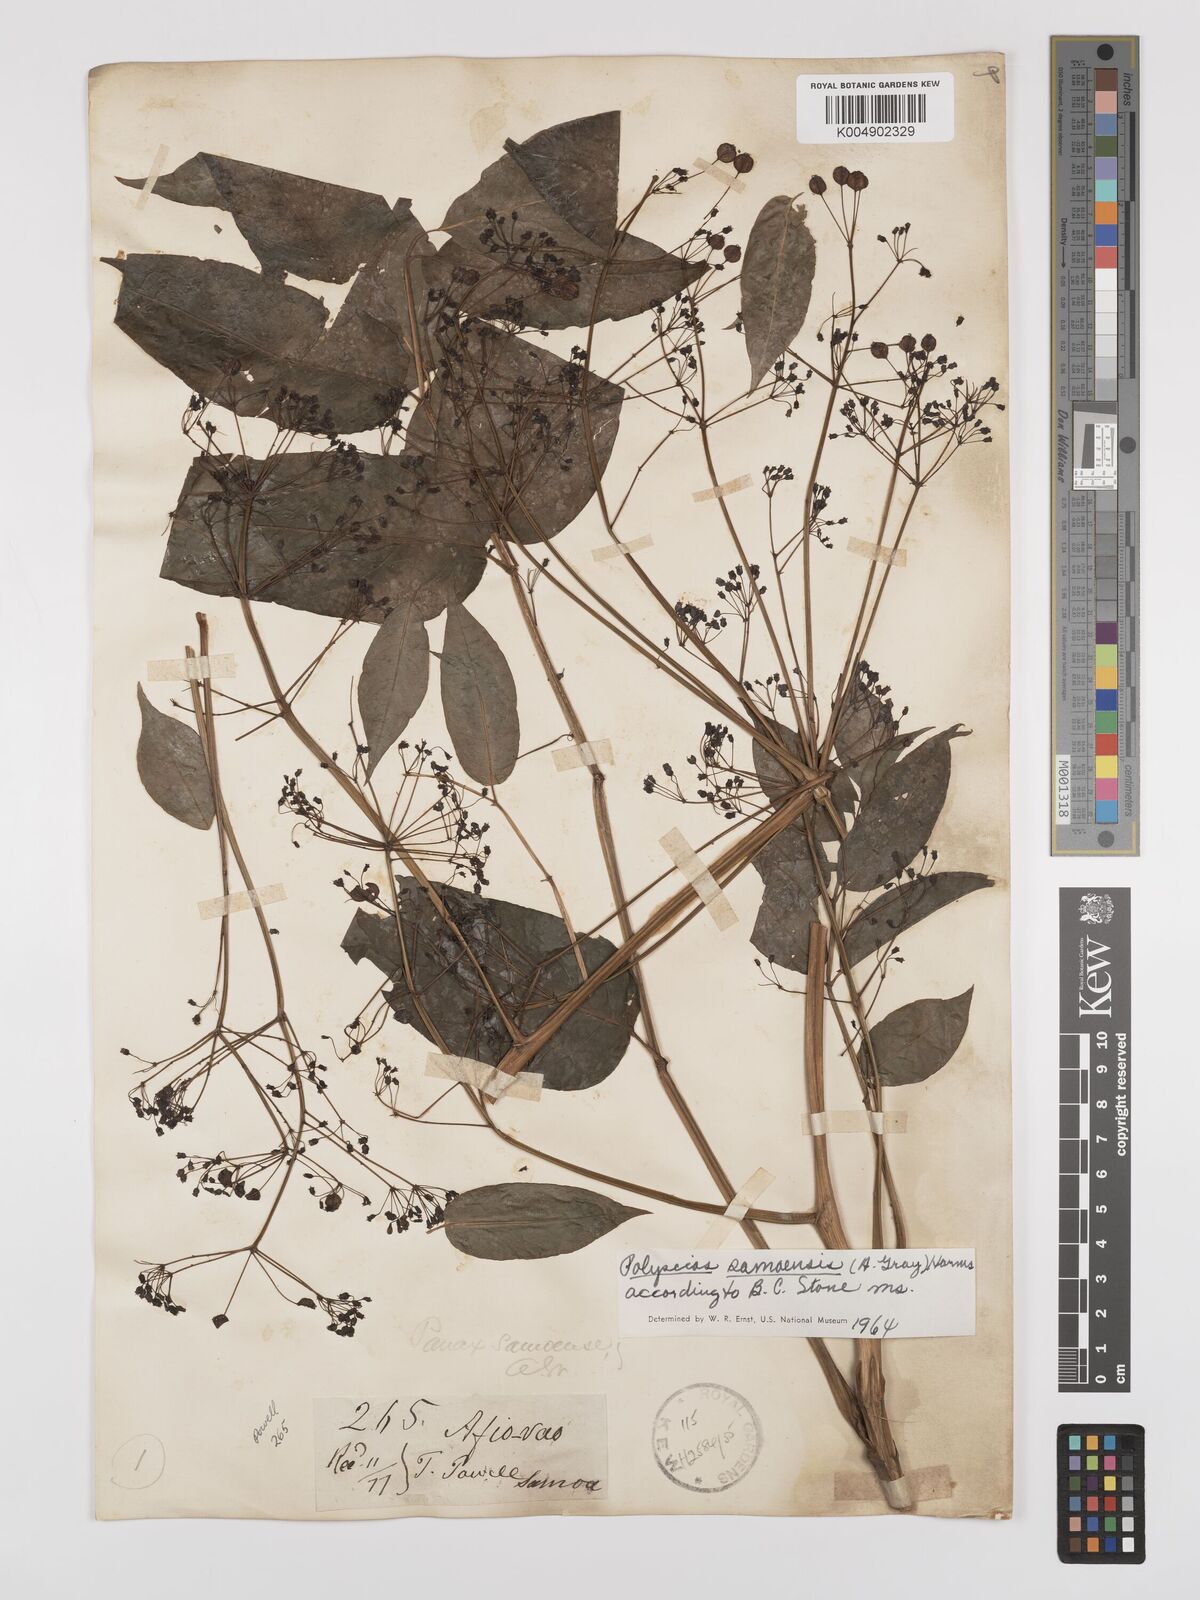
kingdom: Plantae
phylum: Tracheophyta
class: Magnoliopsida
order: Apiales
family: Araliaceae
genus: Polyscias
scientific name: Polyscias samoensis
